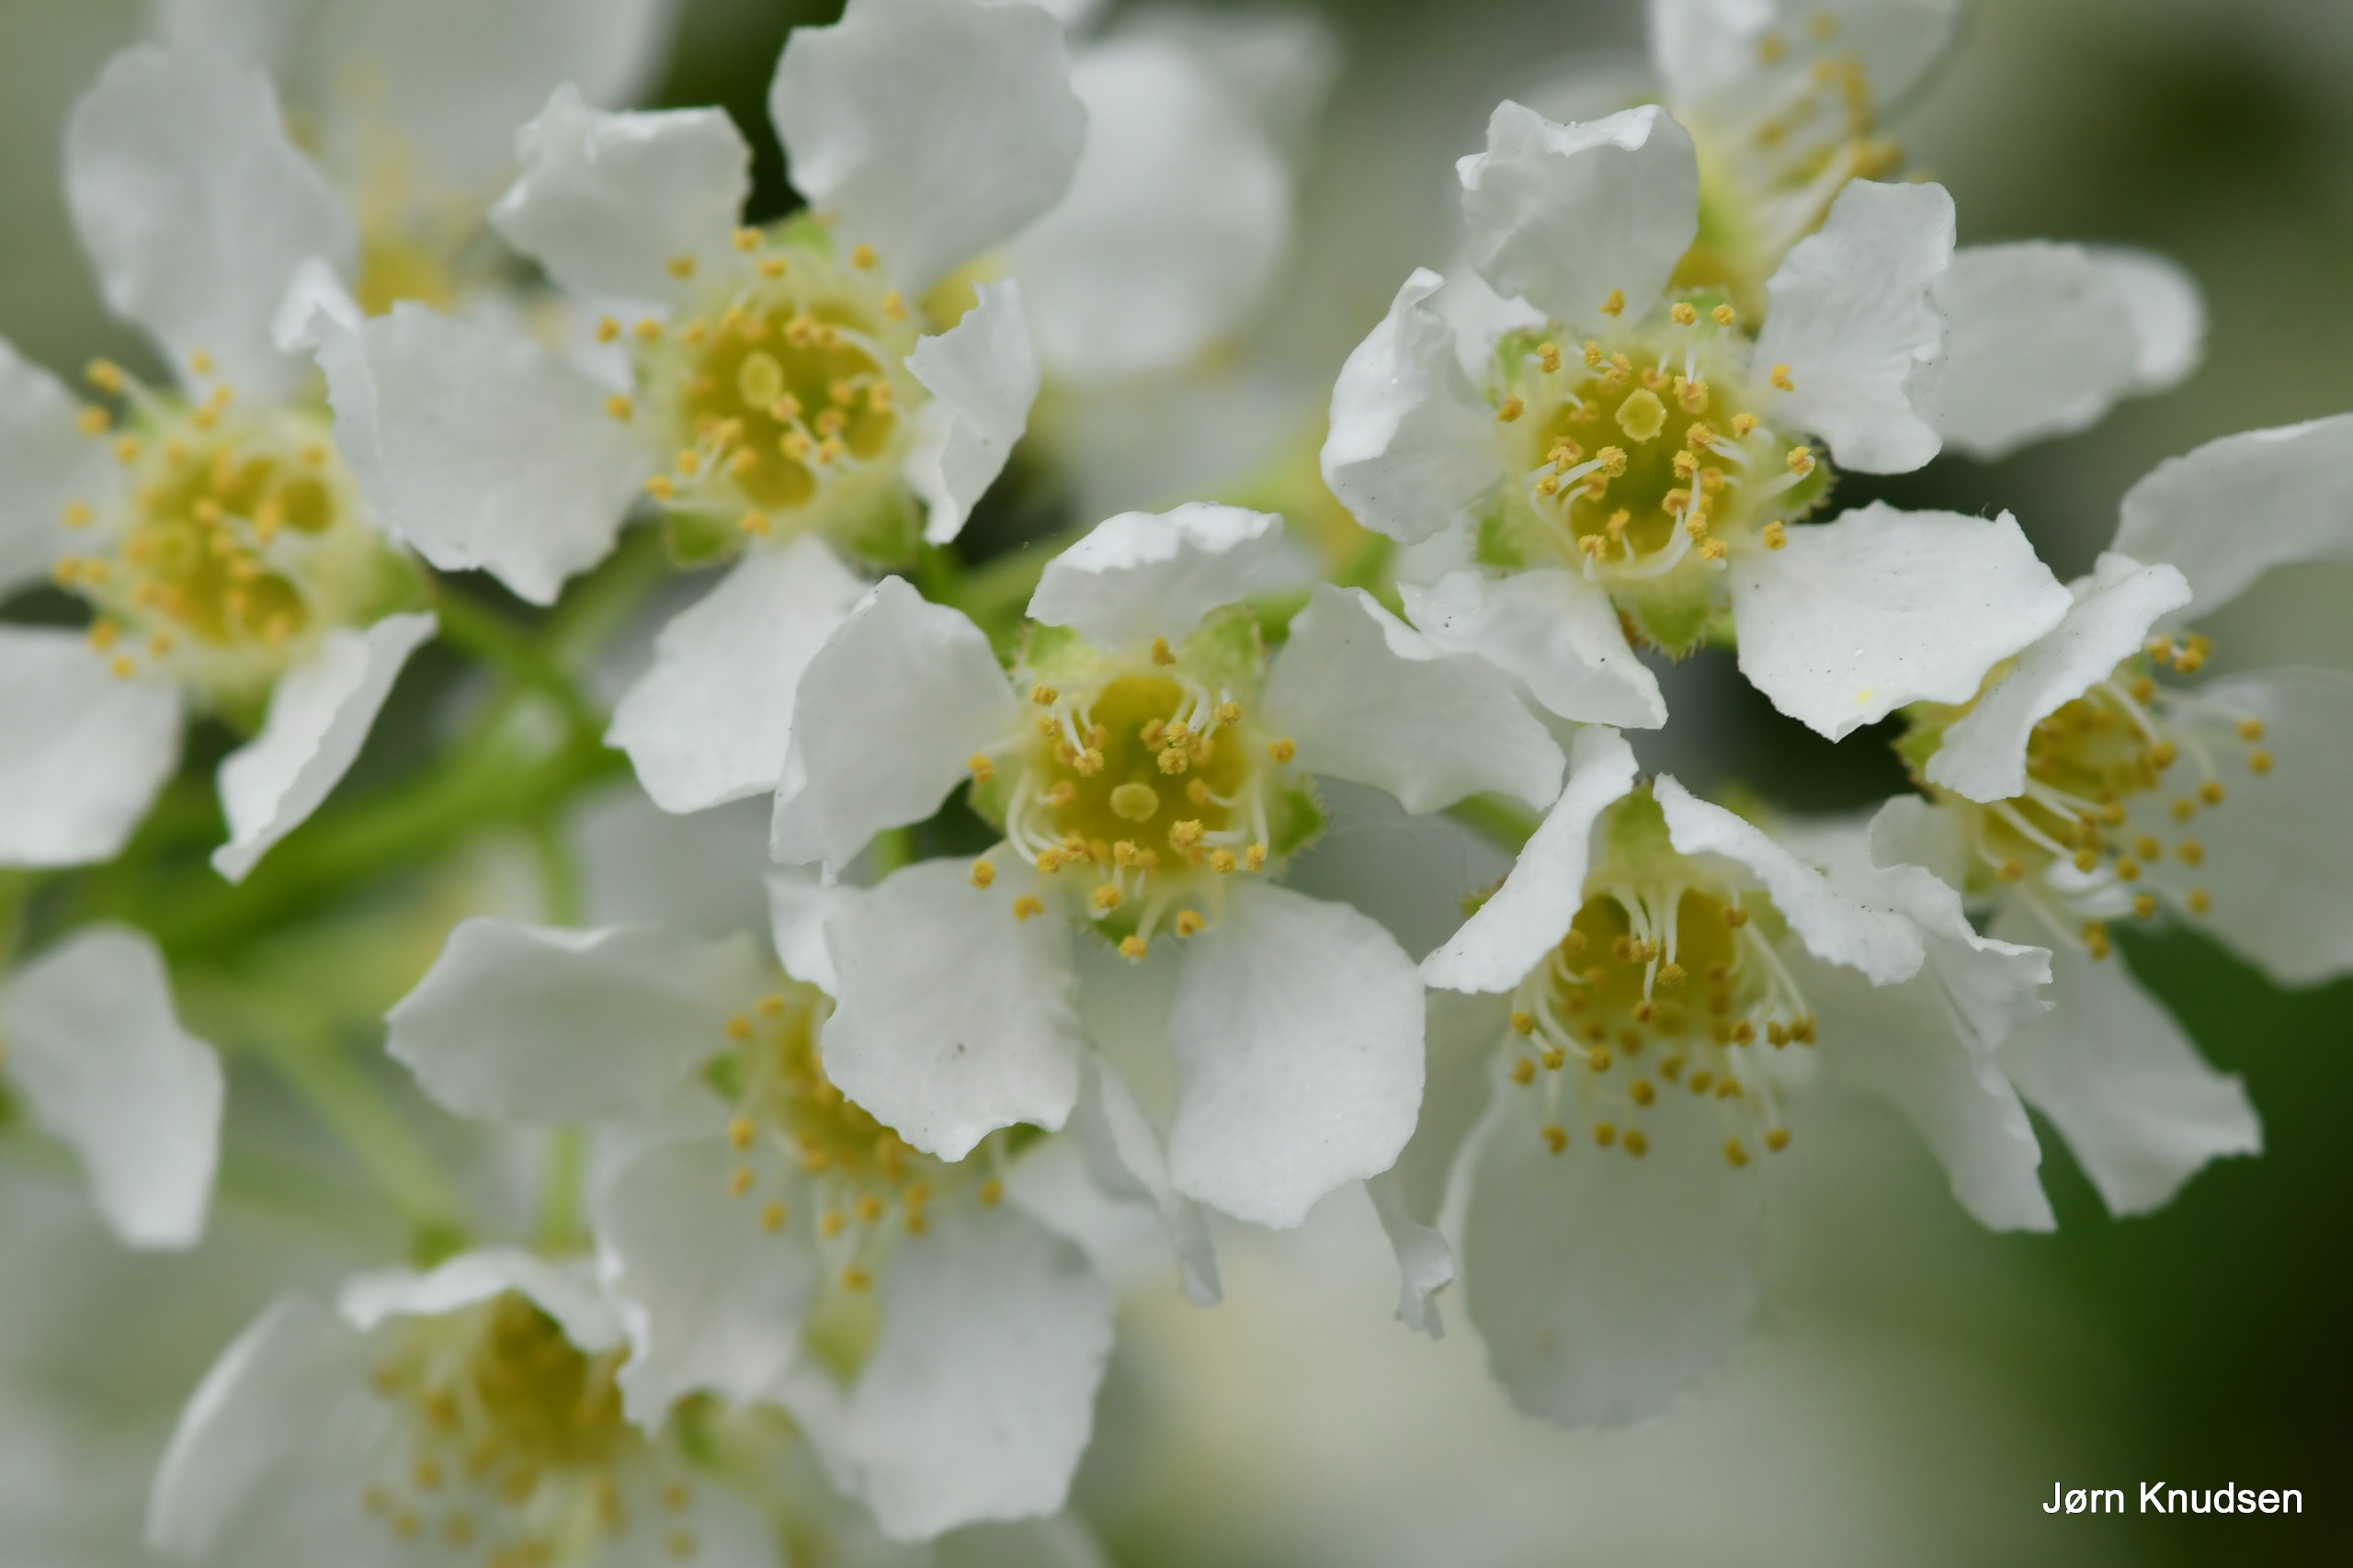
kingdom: Plantae
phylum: Tracheophyta
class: Magnoliopsida
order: Rosales
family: Rosaceae
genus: Prunus
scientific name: Prunus padus
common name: Almindelig hæg
